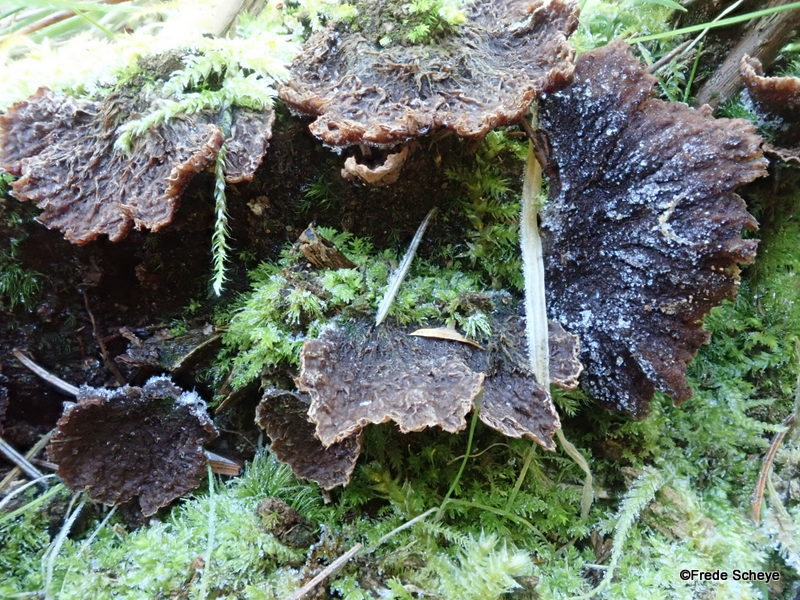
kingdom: Fungi
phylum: Basidiomycota
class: Agaricomycetes
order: Thelephorales
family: Thelephoraceae
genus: Thelephora
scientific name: Thelephora terrestris
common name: fliget frynsesvamp
